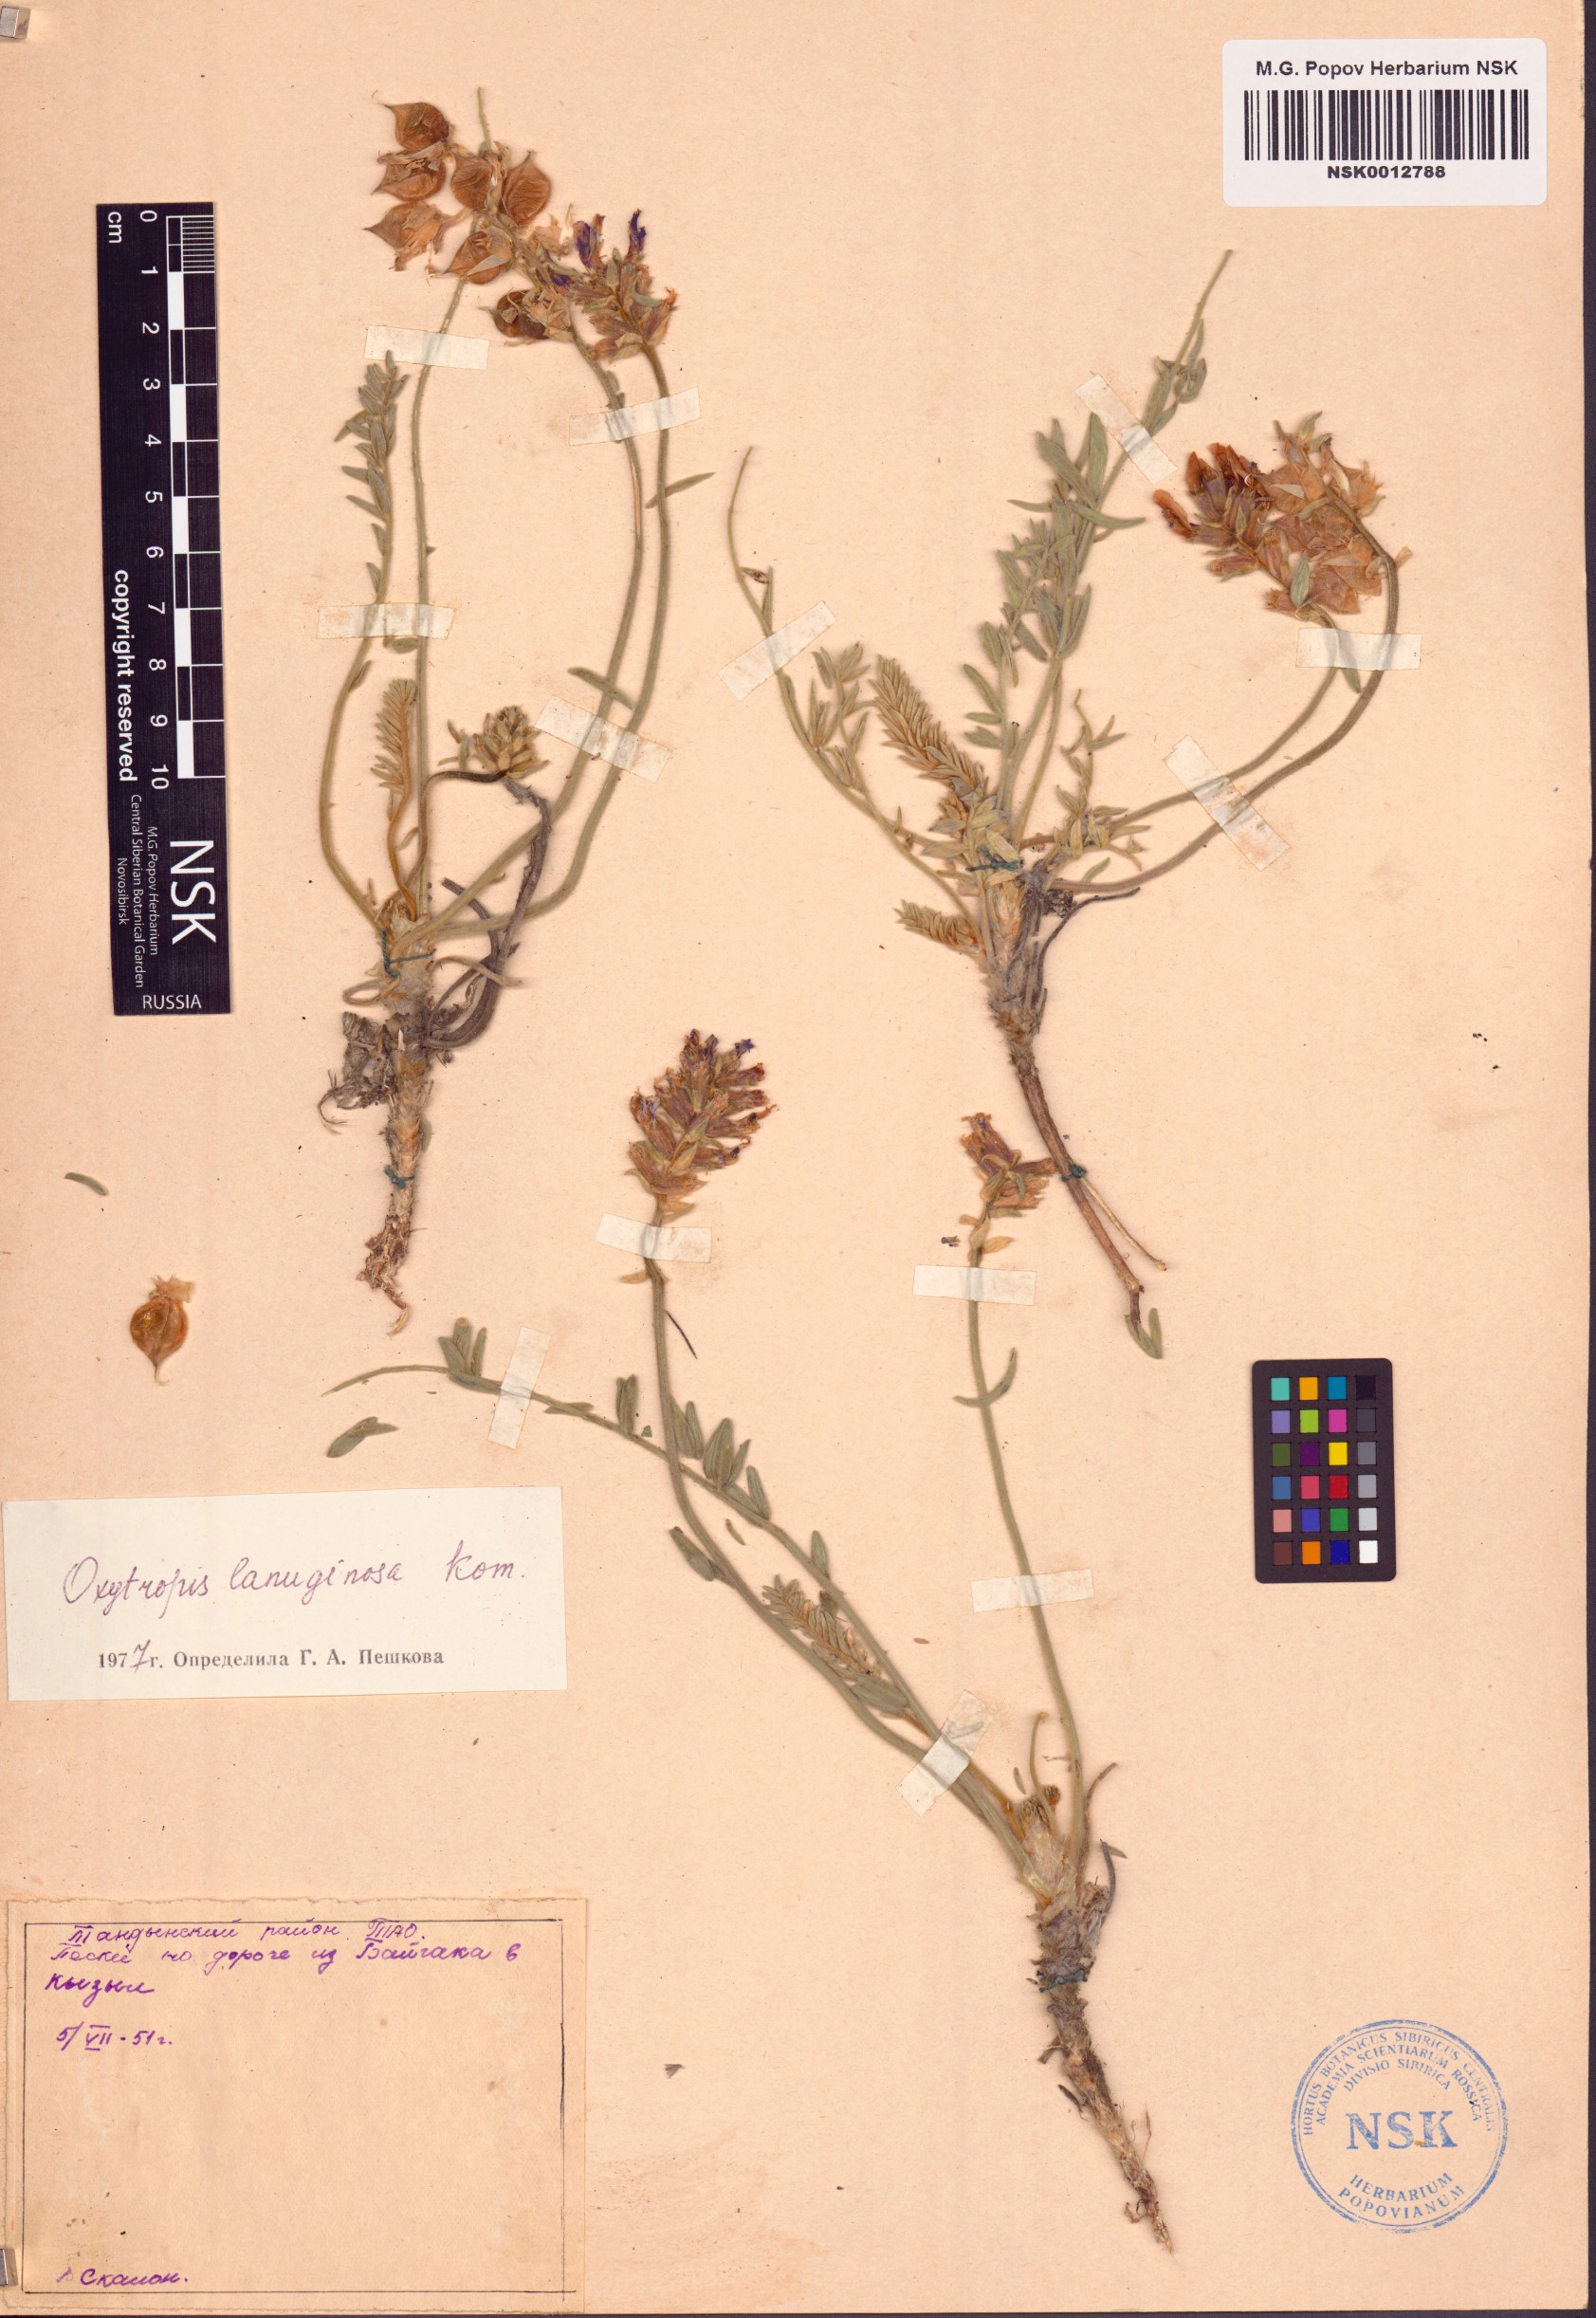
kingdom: Plantae
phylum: Tracheophyta
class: Magnoliopsida
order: Fabales
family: Fabaceae
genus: Oxytropis
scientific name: Oxytropis lanuginosa
